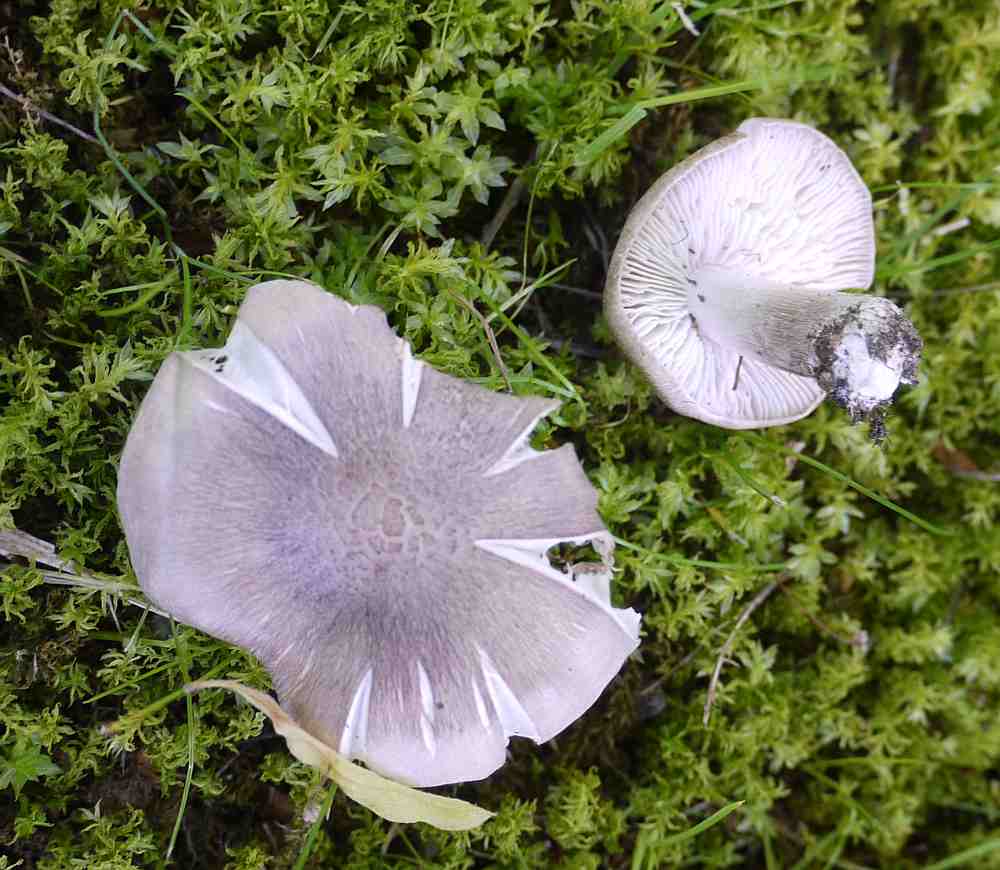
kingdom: Fungi
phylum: Basidiomycota
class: Agaricomycetes
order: Agaricales
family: Tricholomataceae
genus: Tricholoma
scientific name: Tricholoma scalpturatum
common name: gulplettet ridderhat
